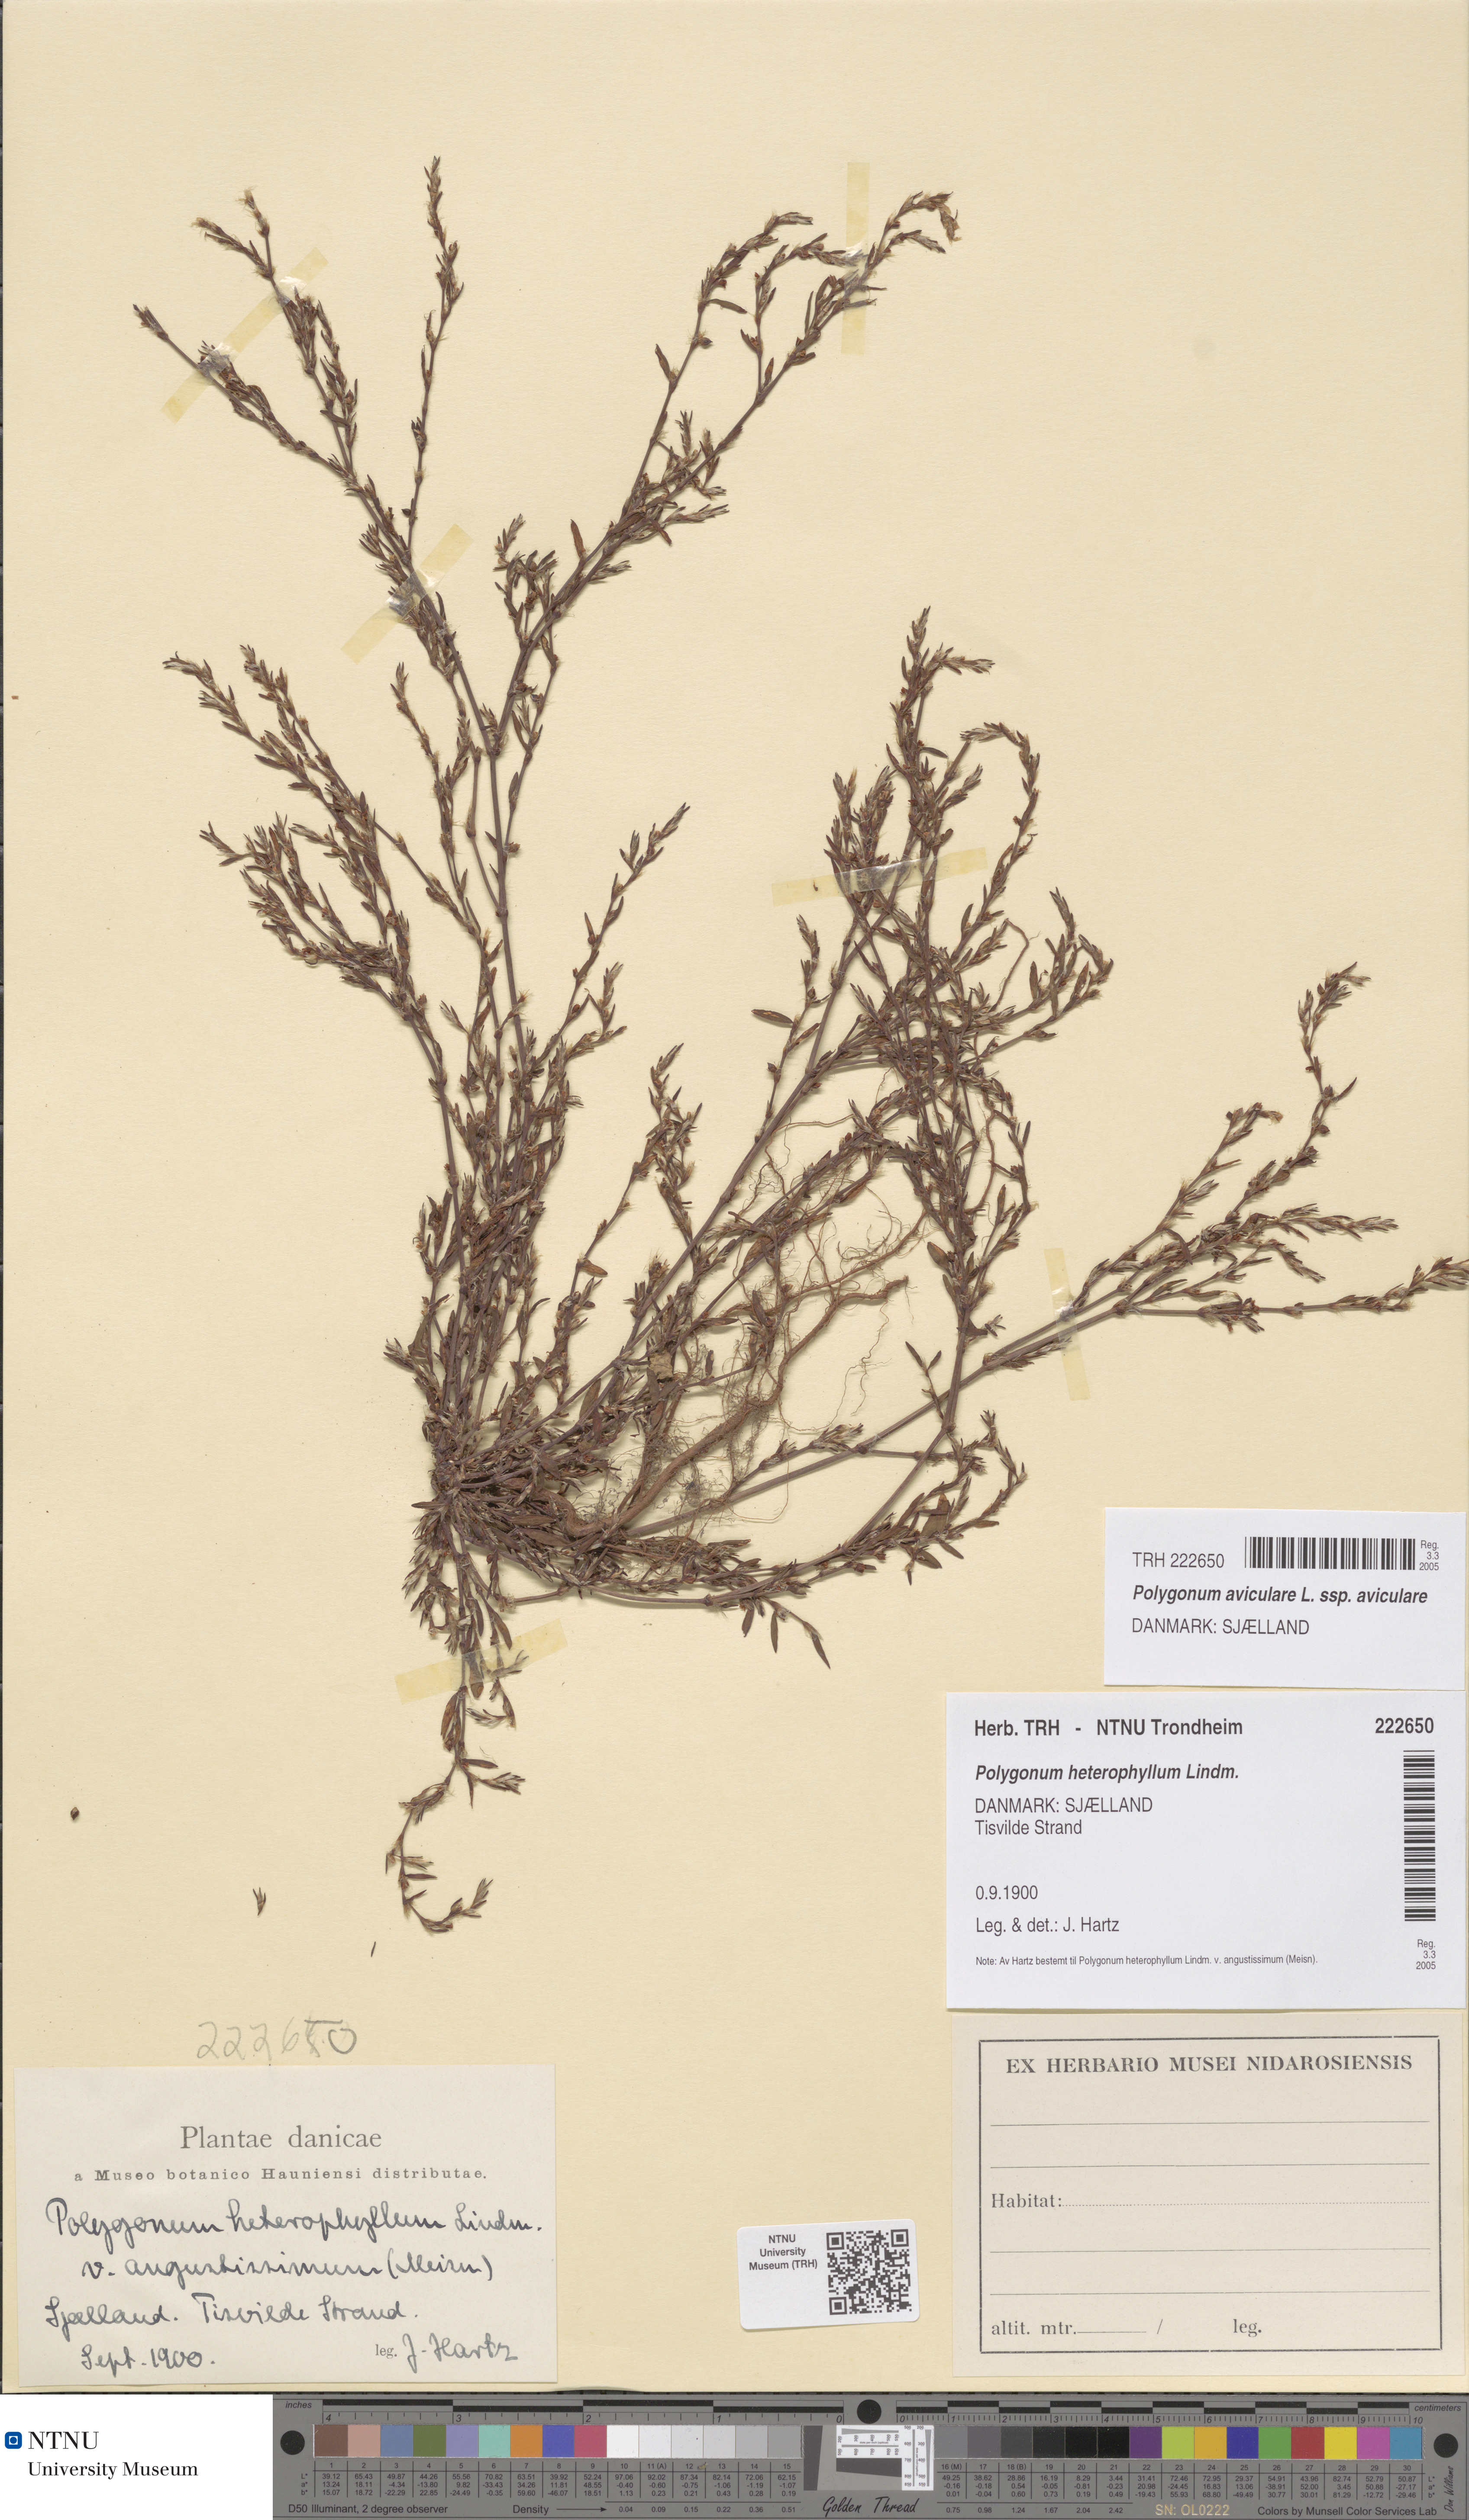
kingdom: Plantae
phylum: Tracheophyta
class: Magnoliopsida
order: Caryophyllales
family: Polygonaceae
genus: Polygonum
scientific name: Polygonum aviculare
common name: Prostrate knotweed
